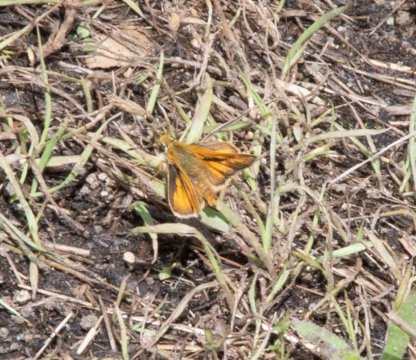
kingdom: Animalia
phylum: Arthropoda
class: Insecta
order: Lepidoptera
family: Hesperiidae
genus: Ochlodes
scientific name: Ochlodes sylvanoides
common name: Woodland Skipper
